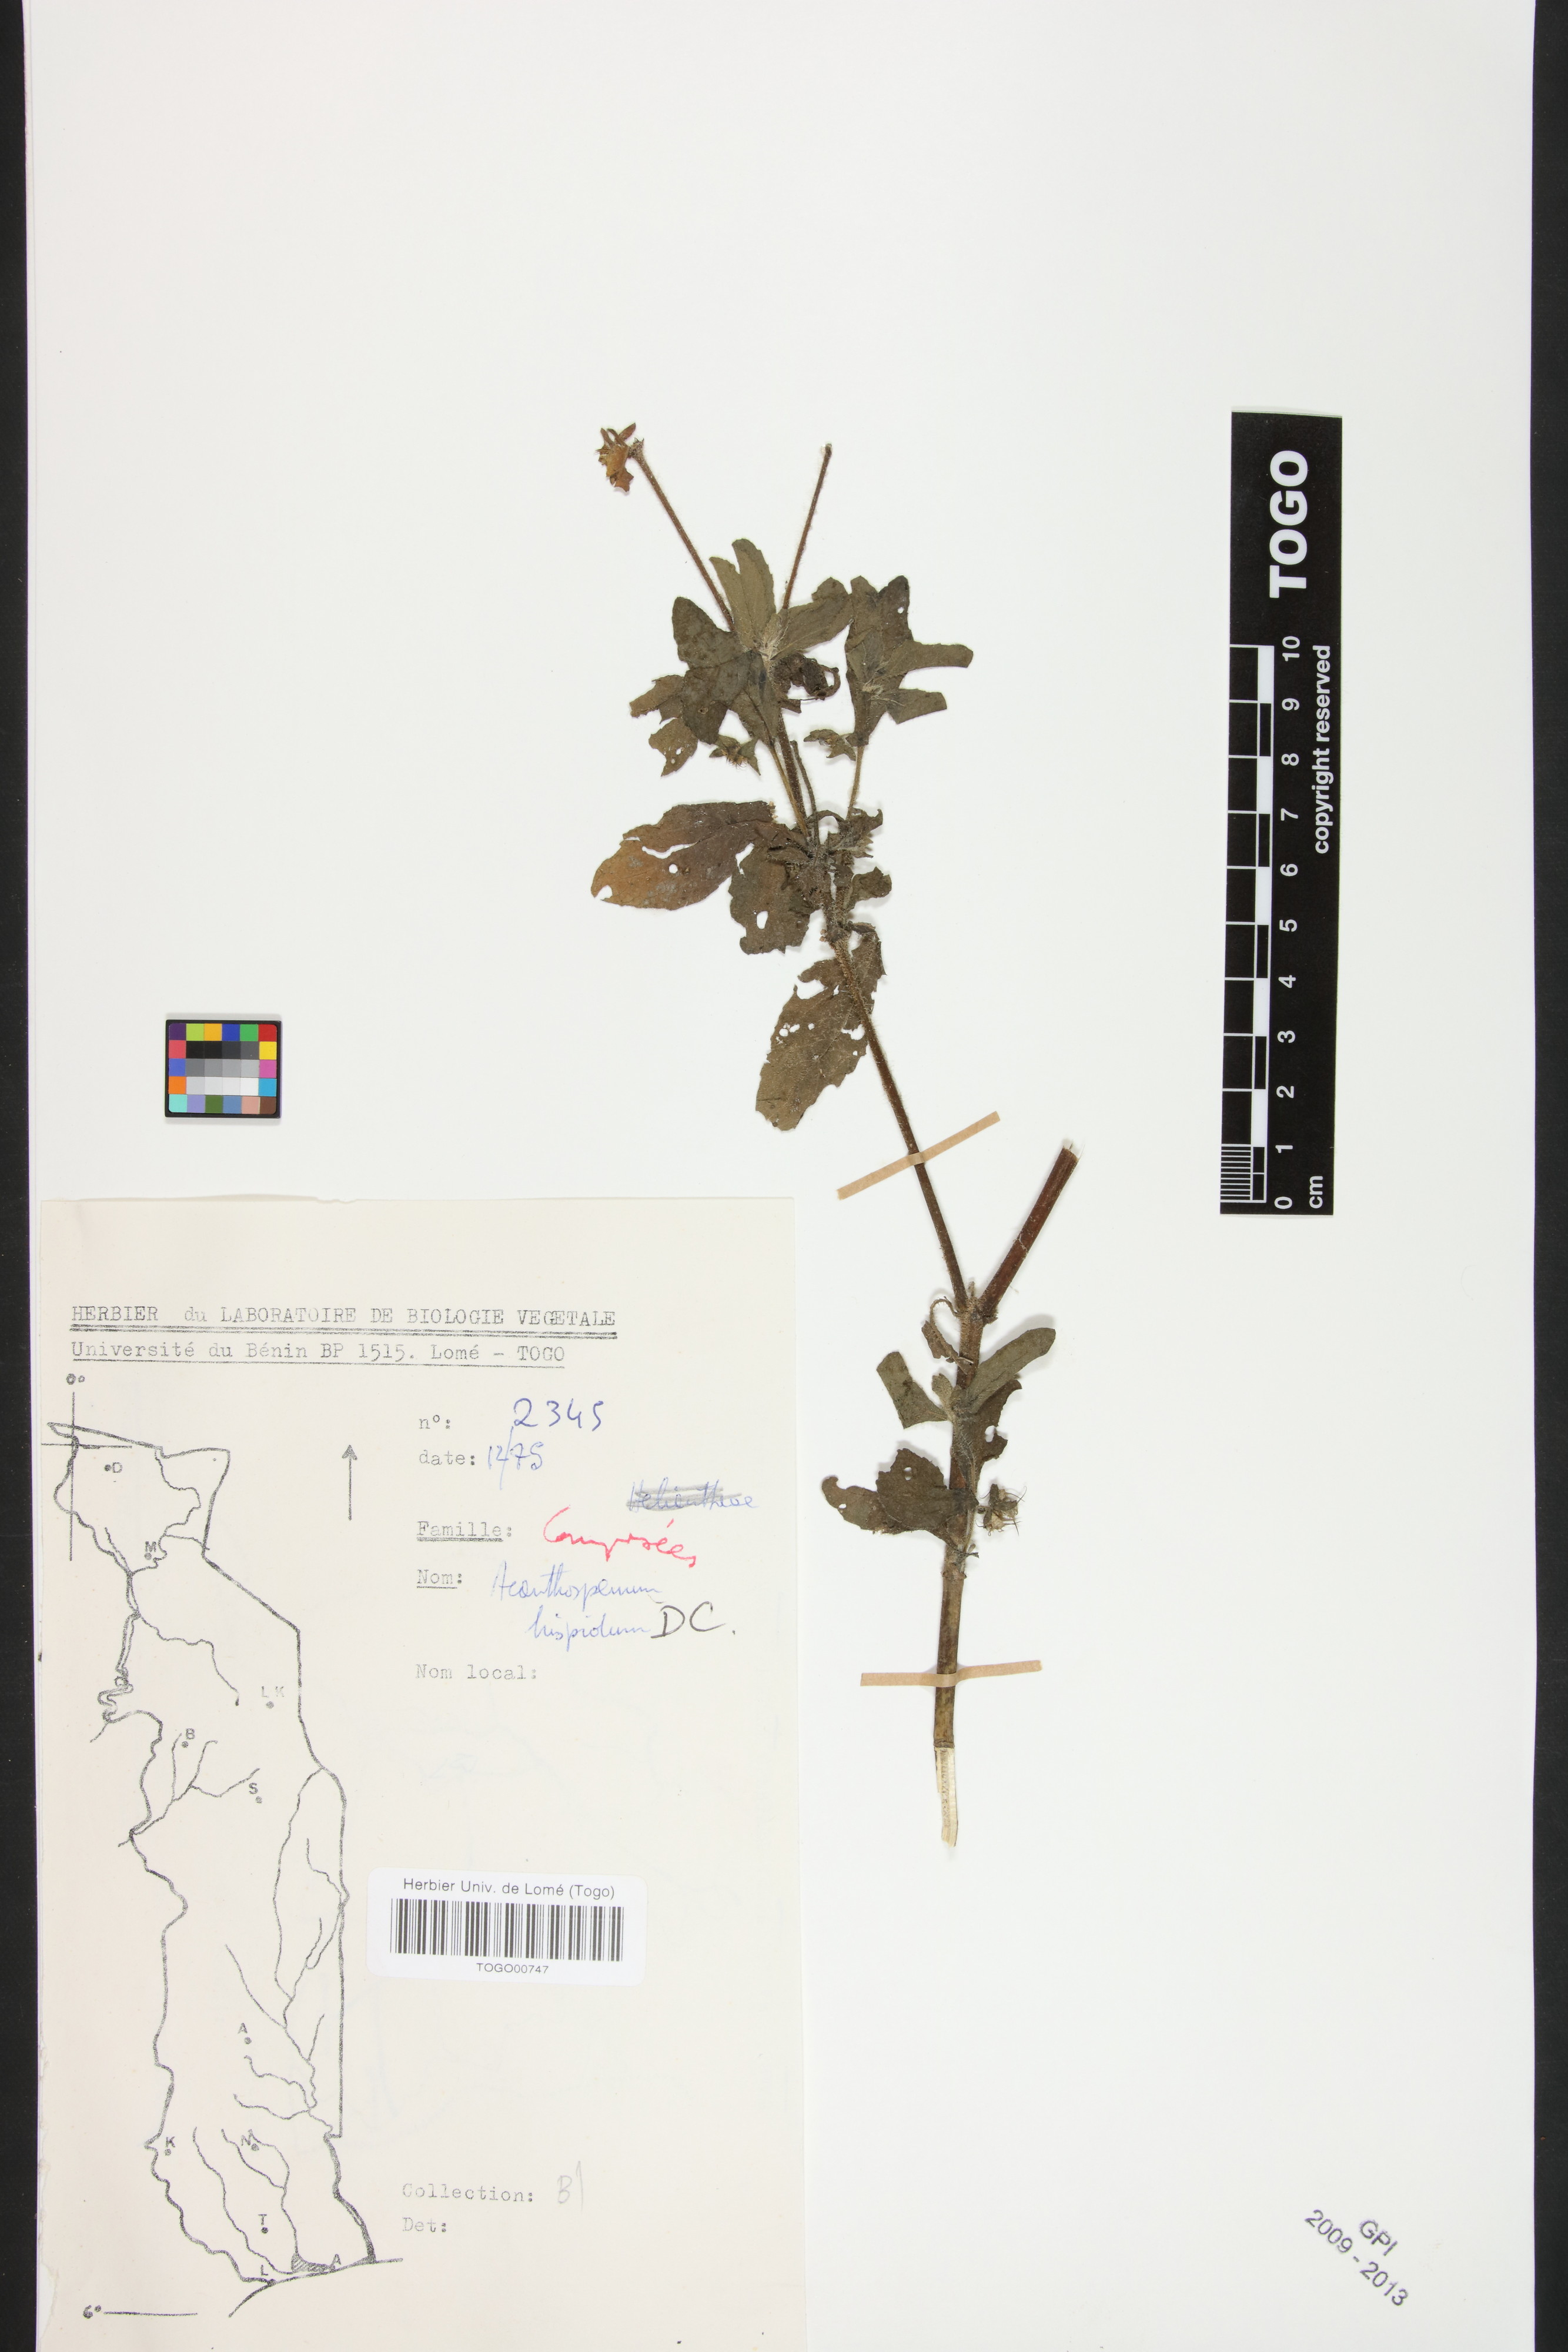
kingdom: Plantae
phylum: Tracheophyta
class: Magnoliopsida
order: Asterales
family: Asteraceae
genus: Acanthospermum
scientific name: Acanthospermum hispidum
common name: Hispid starbur
